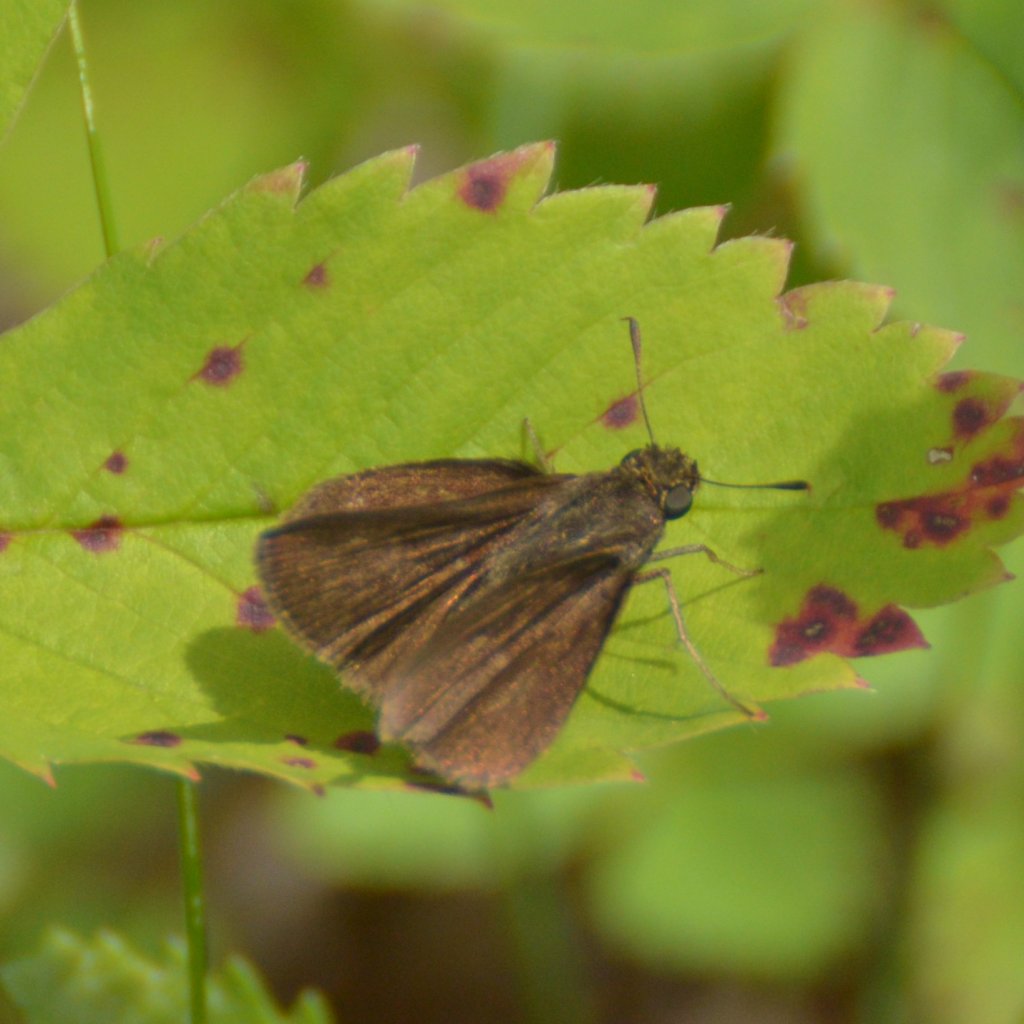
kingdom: Animalia
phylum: Arthropoda
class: Insecta
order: Lepidoptera
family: Hesperiidae
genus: Euphyes
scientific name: Euphyes vestris
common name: Dun Skipper
